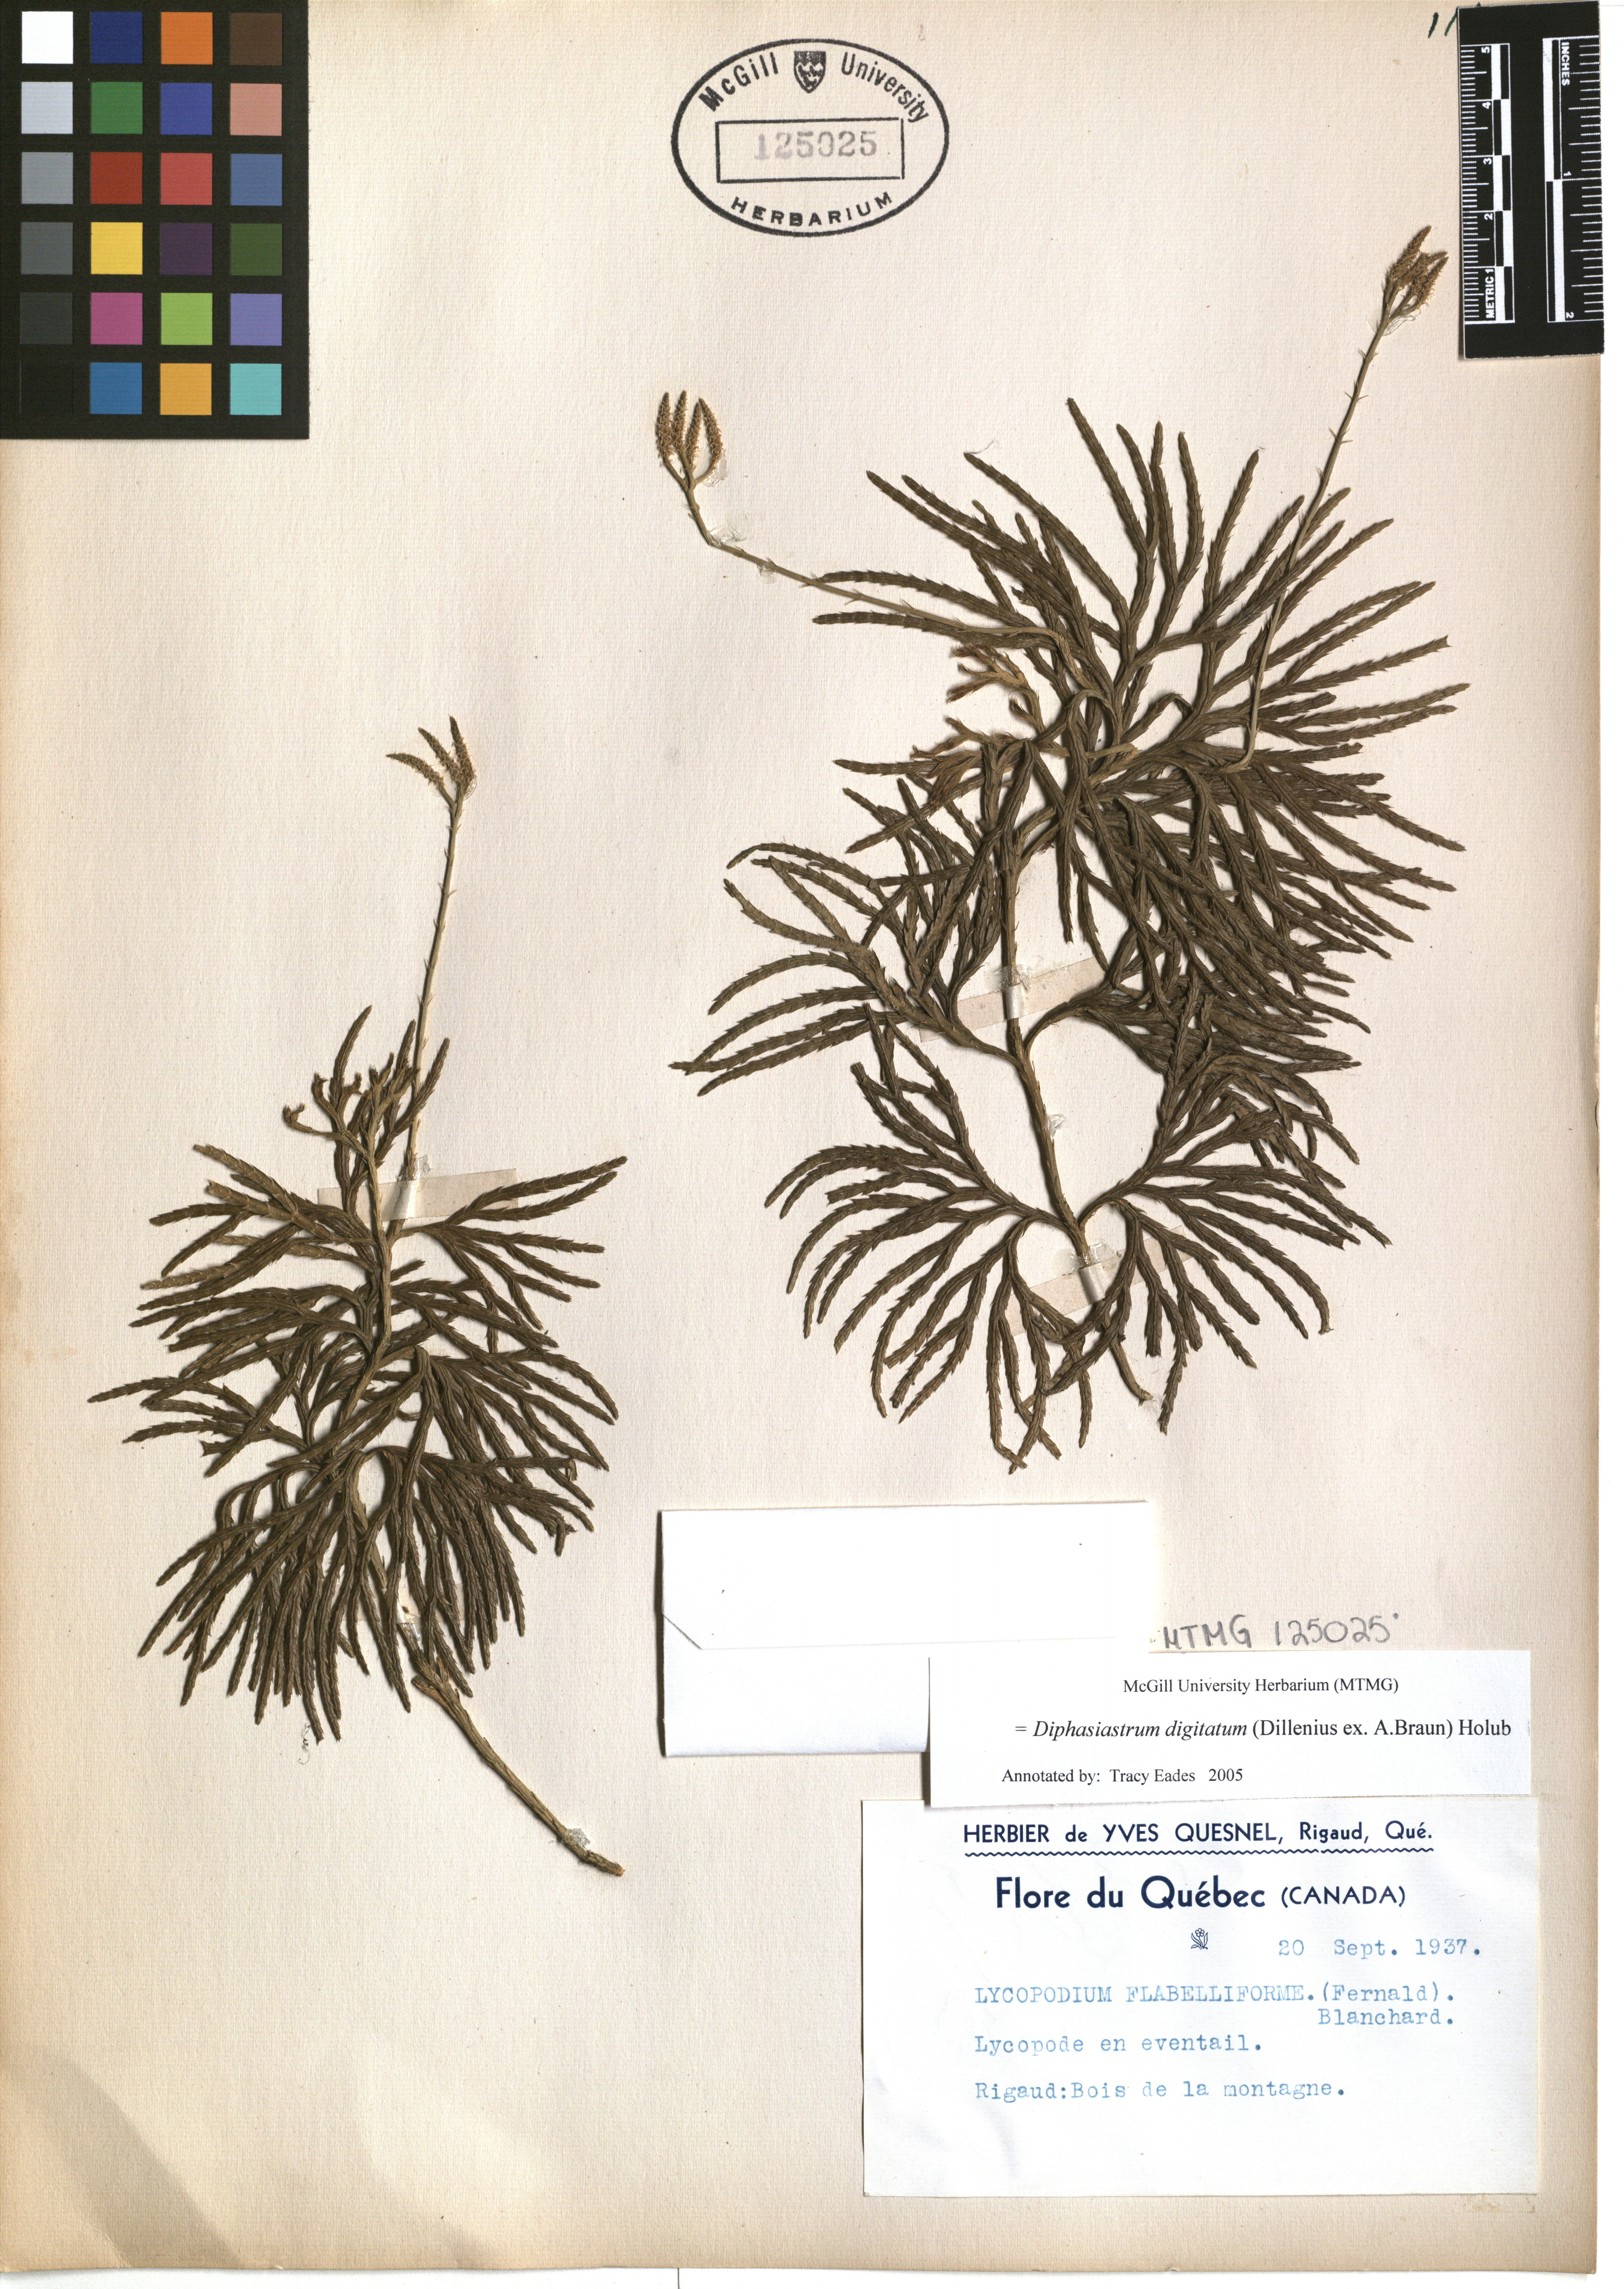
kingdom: Plantae
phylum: Tracheophyta
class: Lycopodiopsida
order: Lycopodiales
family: Lycopodiaceae
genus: Diphasiastrum
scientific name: Diphasiastrum digitatum
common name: Southern running-pine
